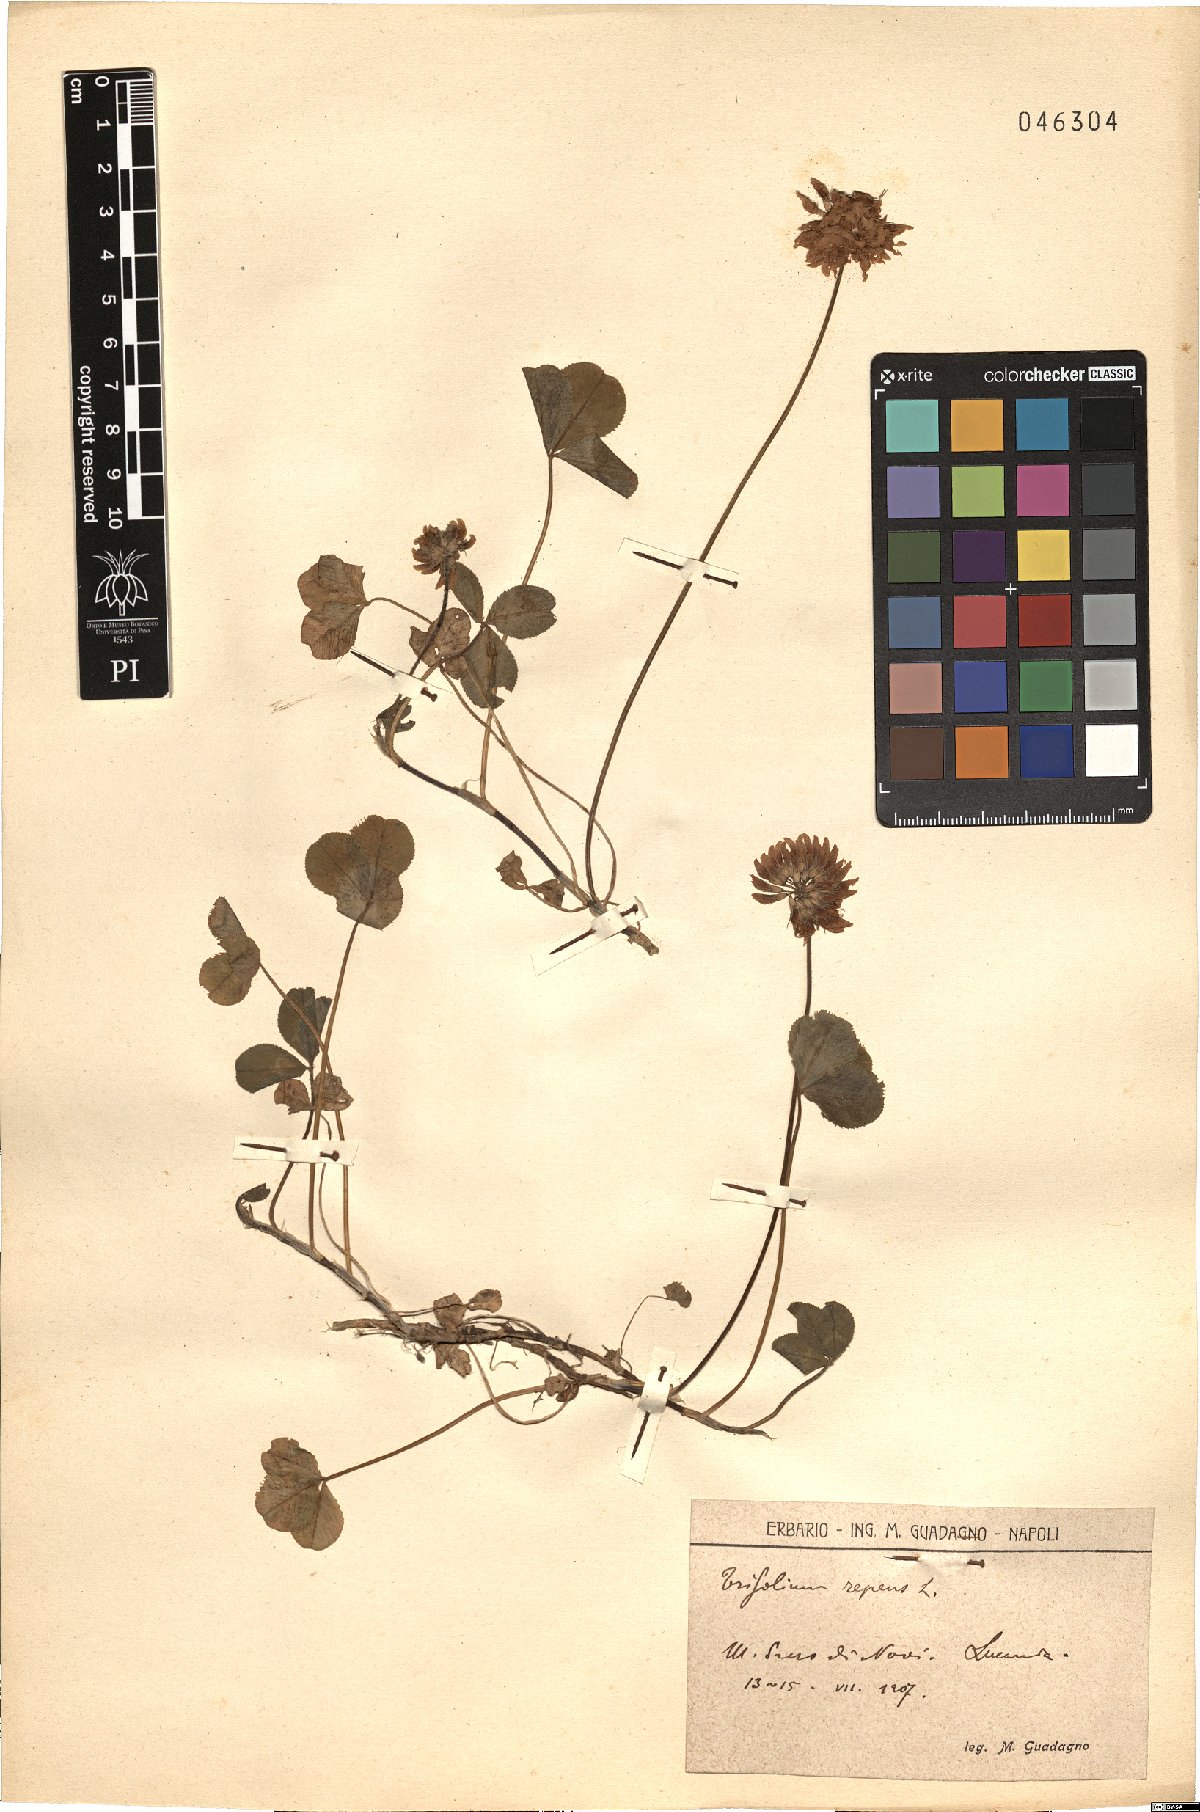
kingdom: Plantae
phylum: Tracheophyta
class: Magnoliopsida
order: Fabales
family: Fabaceae
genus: Trifolium
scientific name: Trifolium repens
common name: White clover
